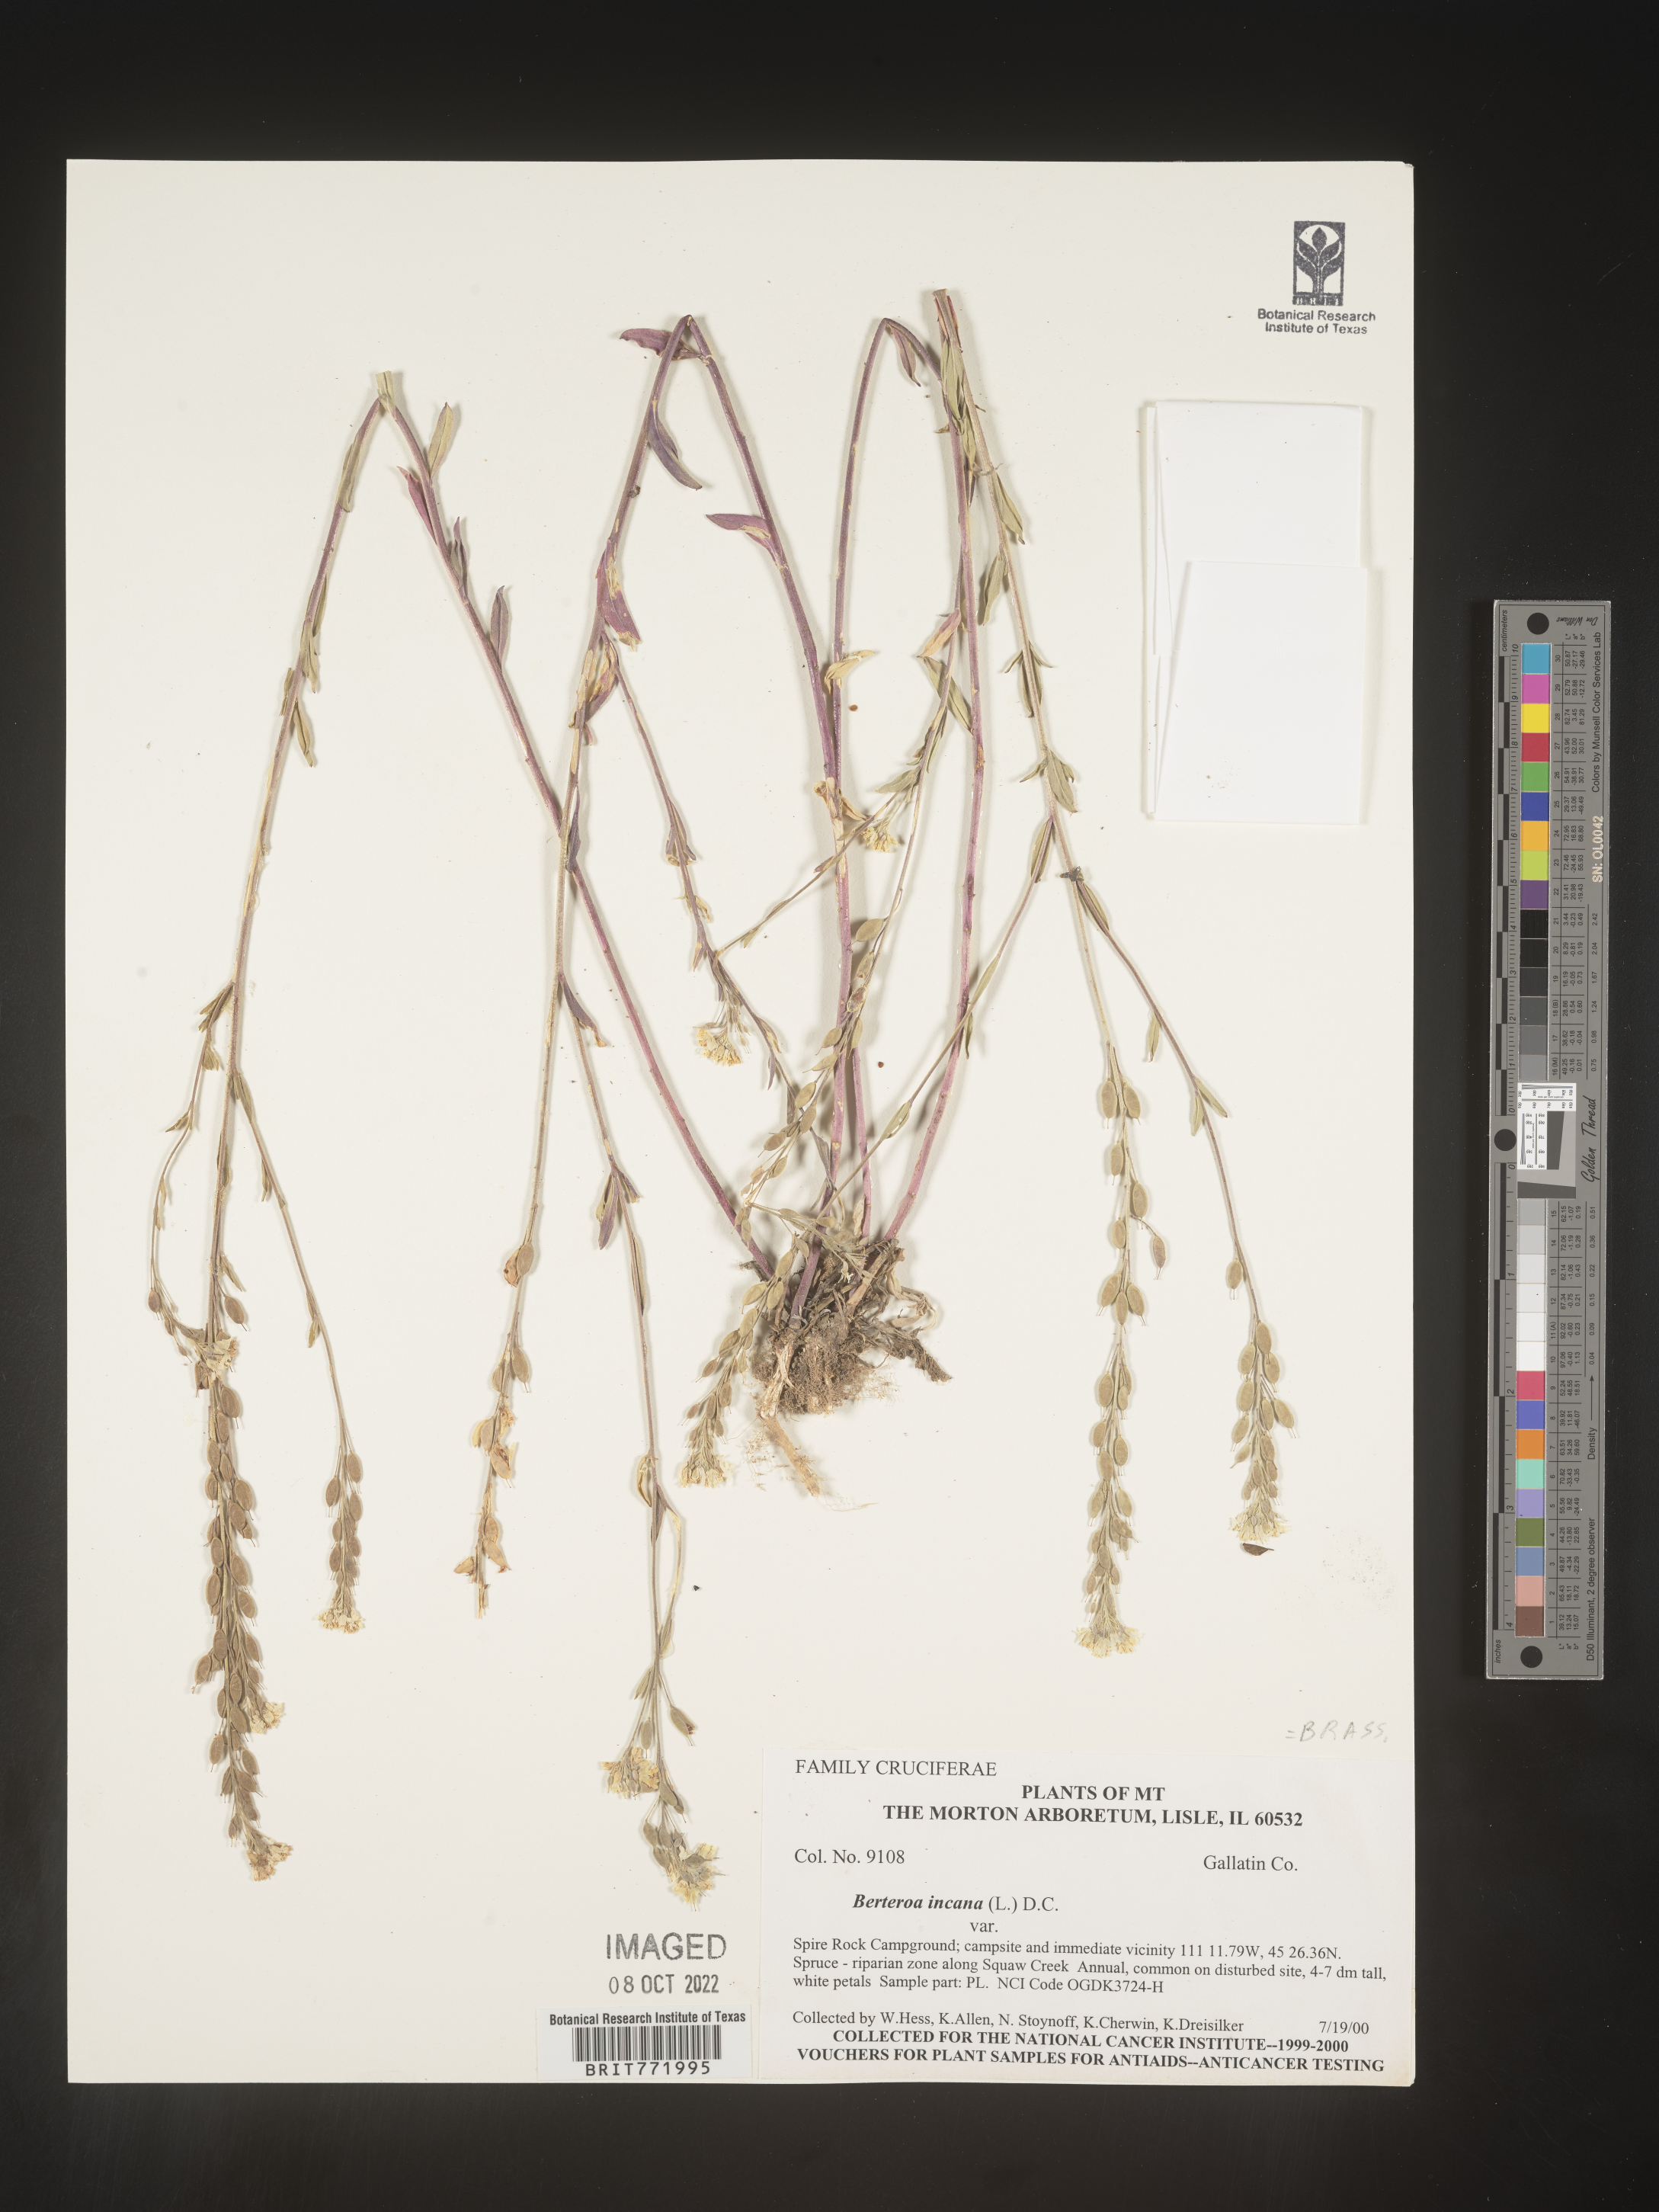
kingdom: Plantae
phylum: Tracheophyta
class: Magnoliopsida
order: Brassicales
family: Brassicaceae
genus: Berteroa
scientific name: Berteroa incana
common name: Hoary alison
